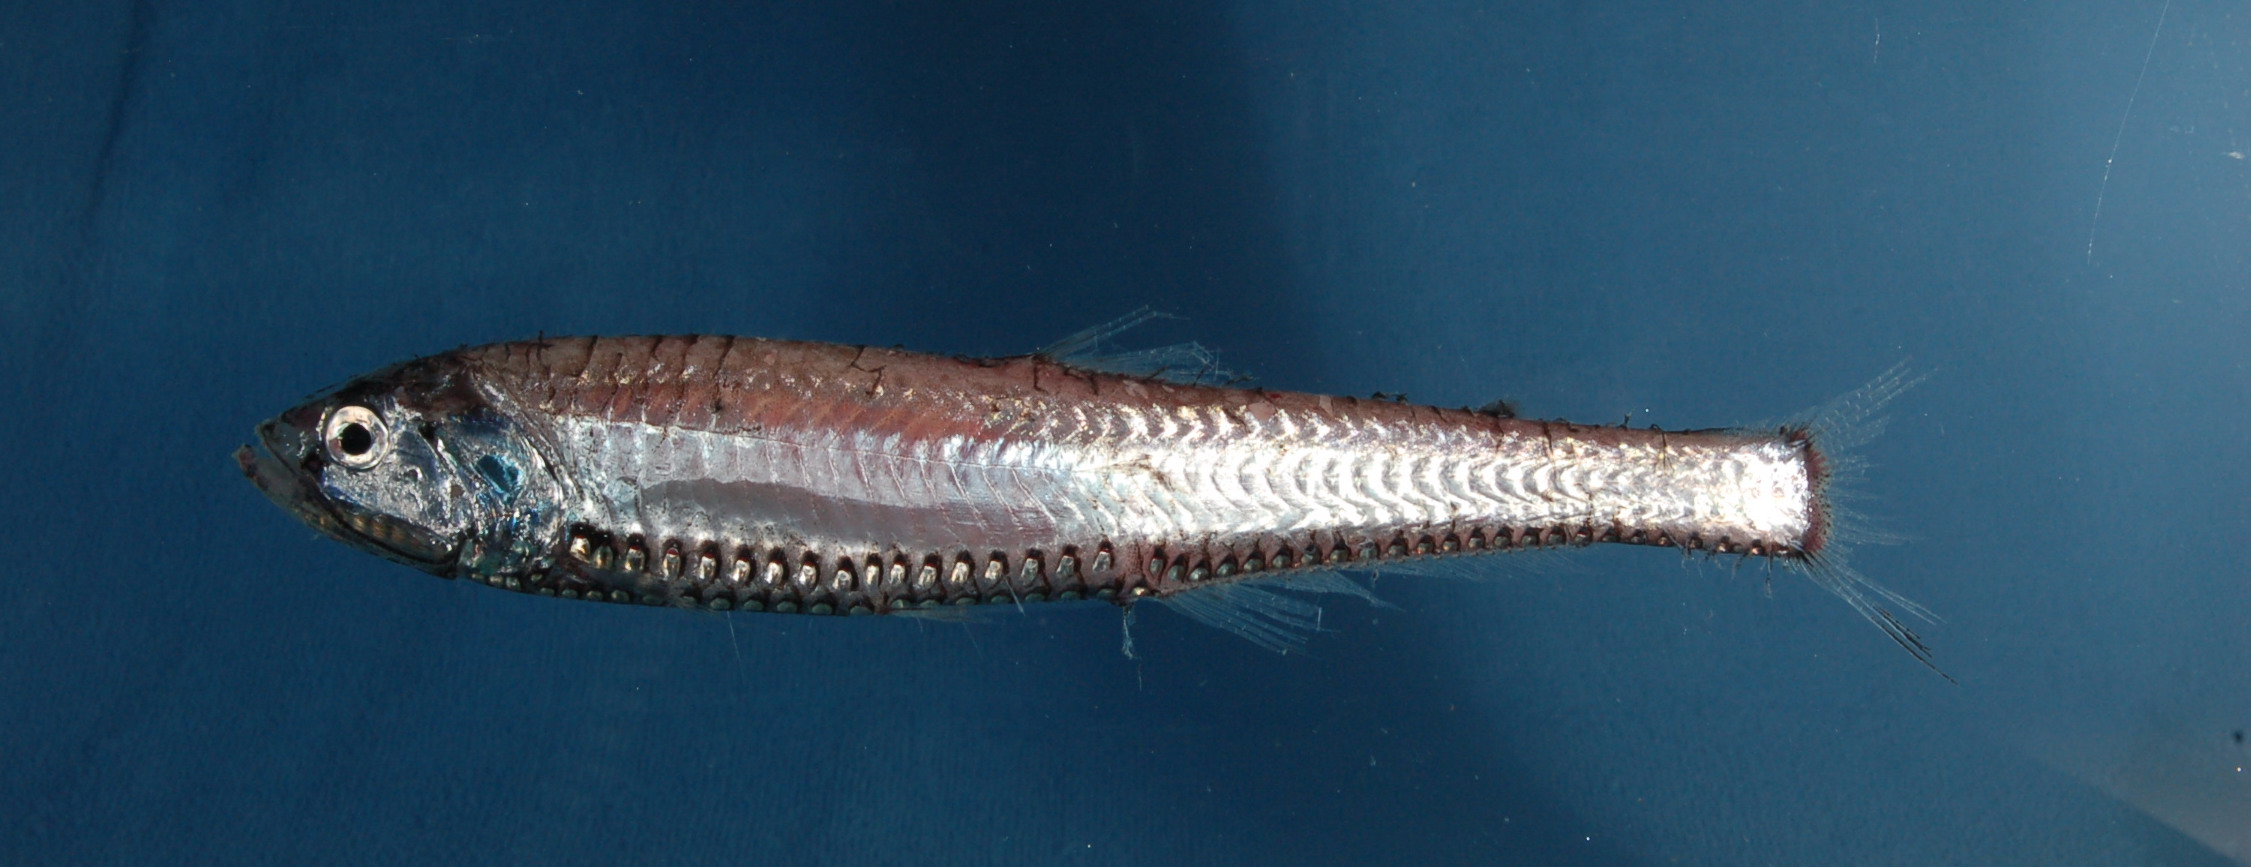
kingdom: Animalia
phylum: Chordata
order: Stomiiformes
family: Phosichthyidae
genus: Polymetme
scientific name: Polymetme corythaeola
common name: Rendezvous fish
